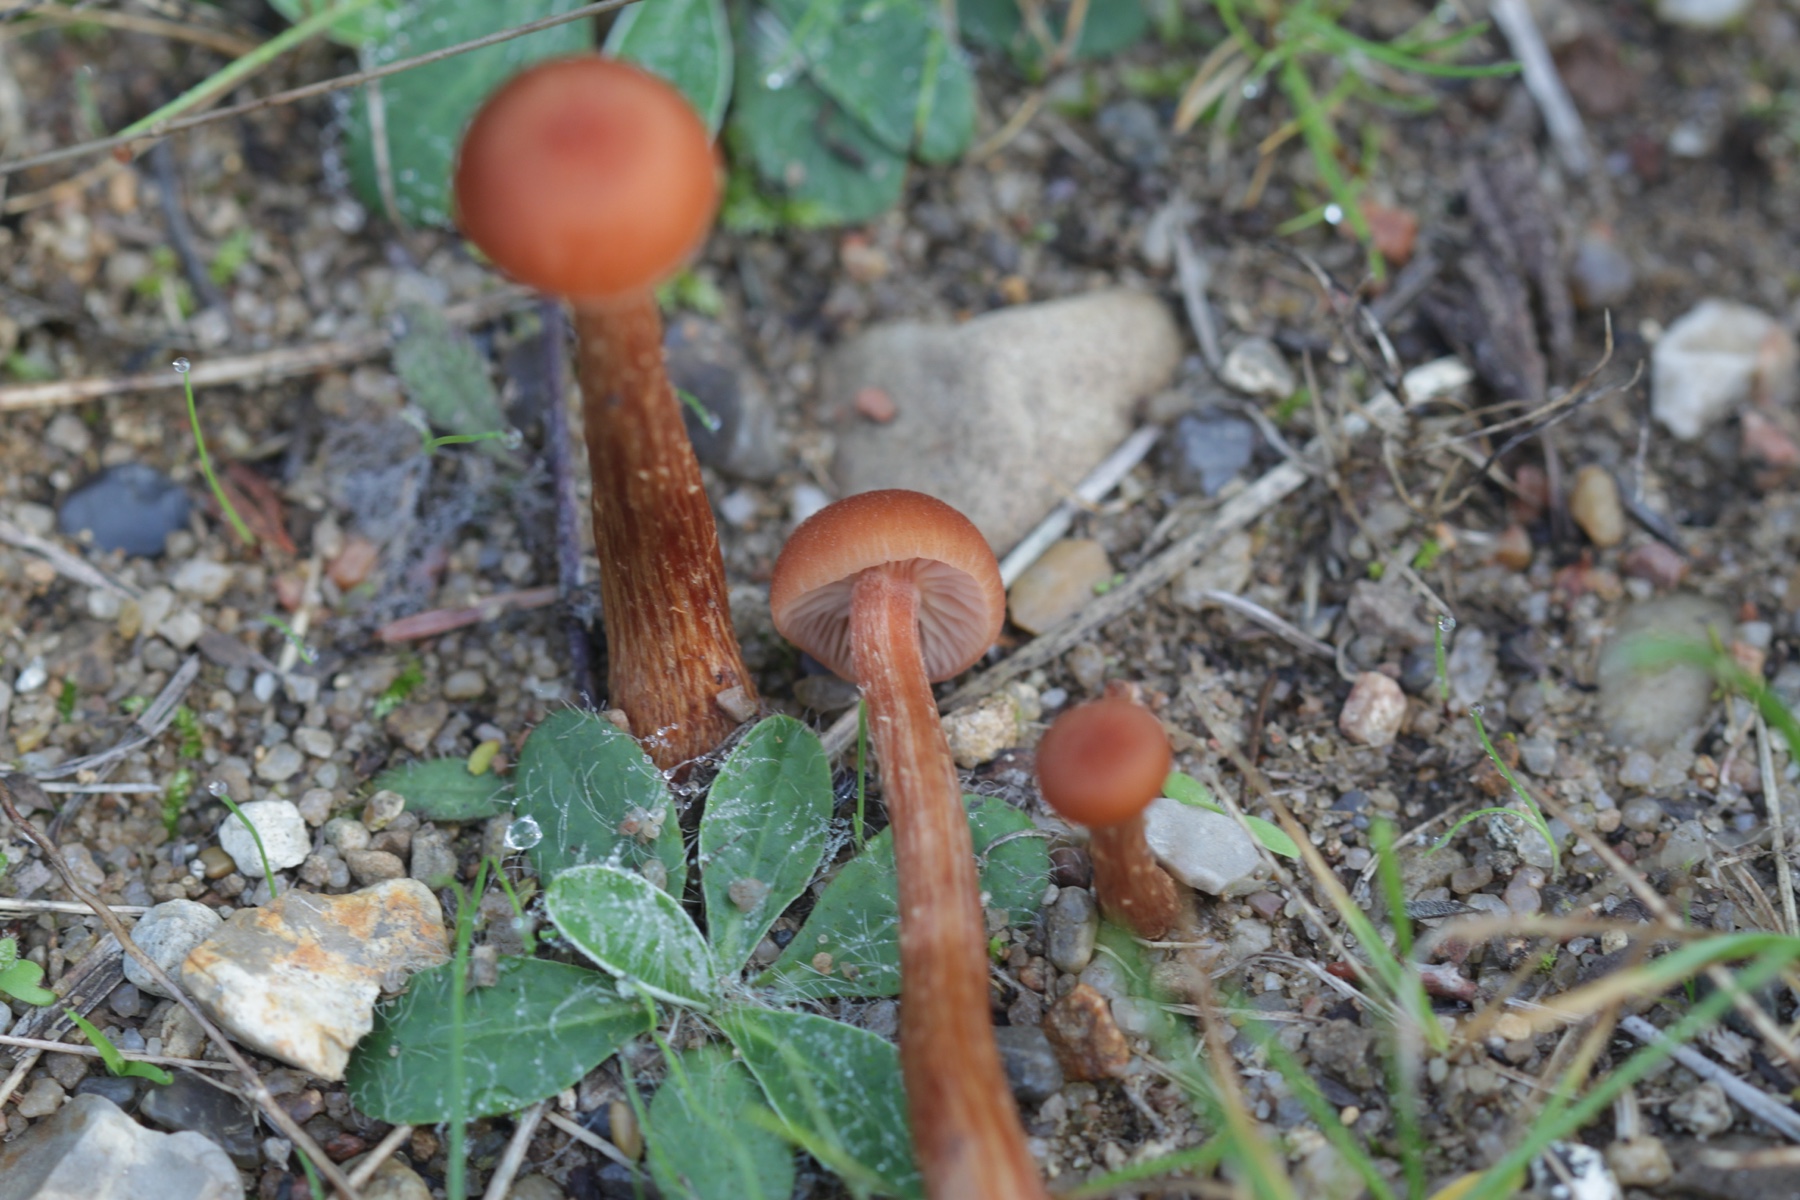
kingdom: Fungi
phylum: Basidiomycota
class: Agaricomycetes
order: Agaricales
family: Hydnangiaceae
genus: Laccaria
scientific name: Laccaria proxima
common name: stor ametysthat
